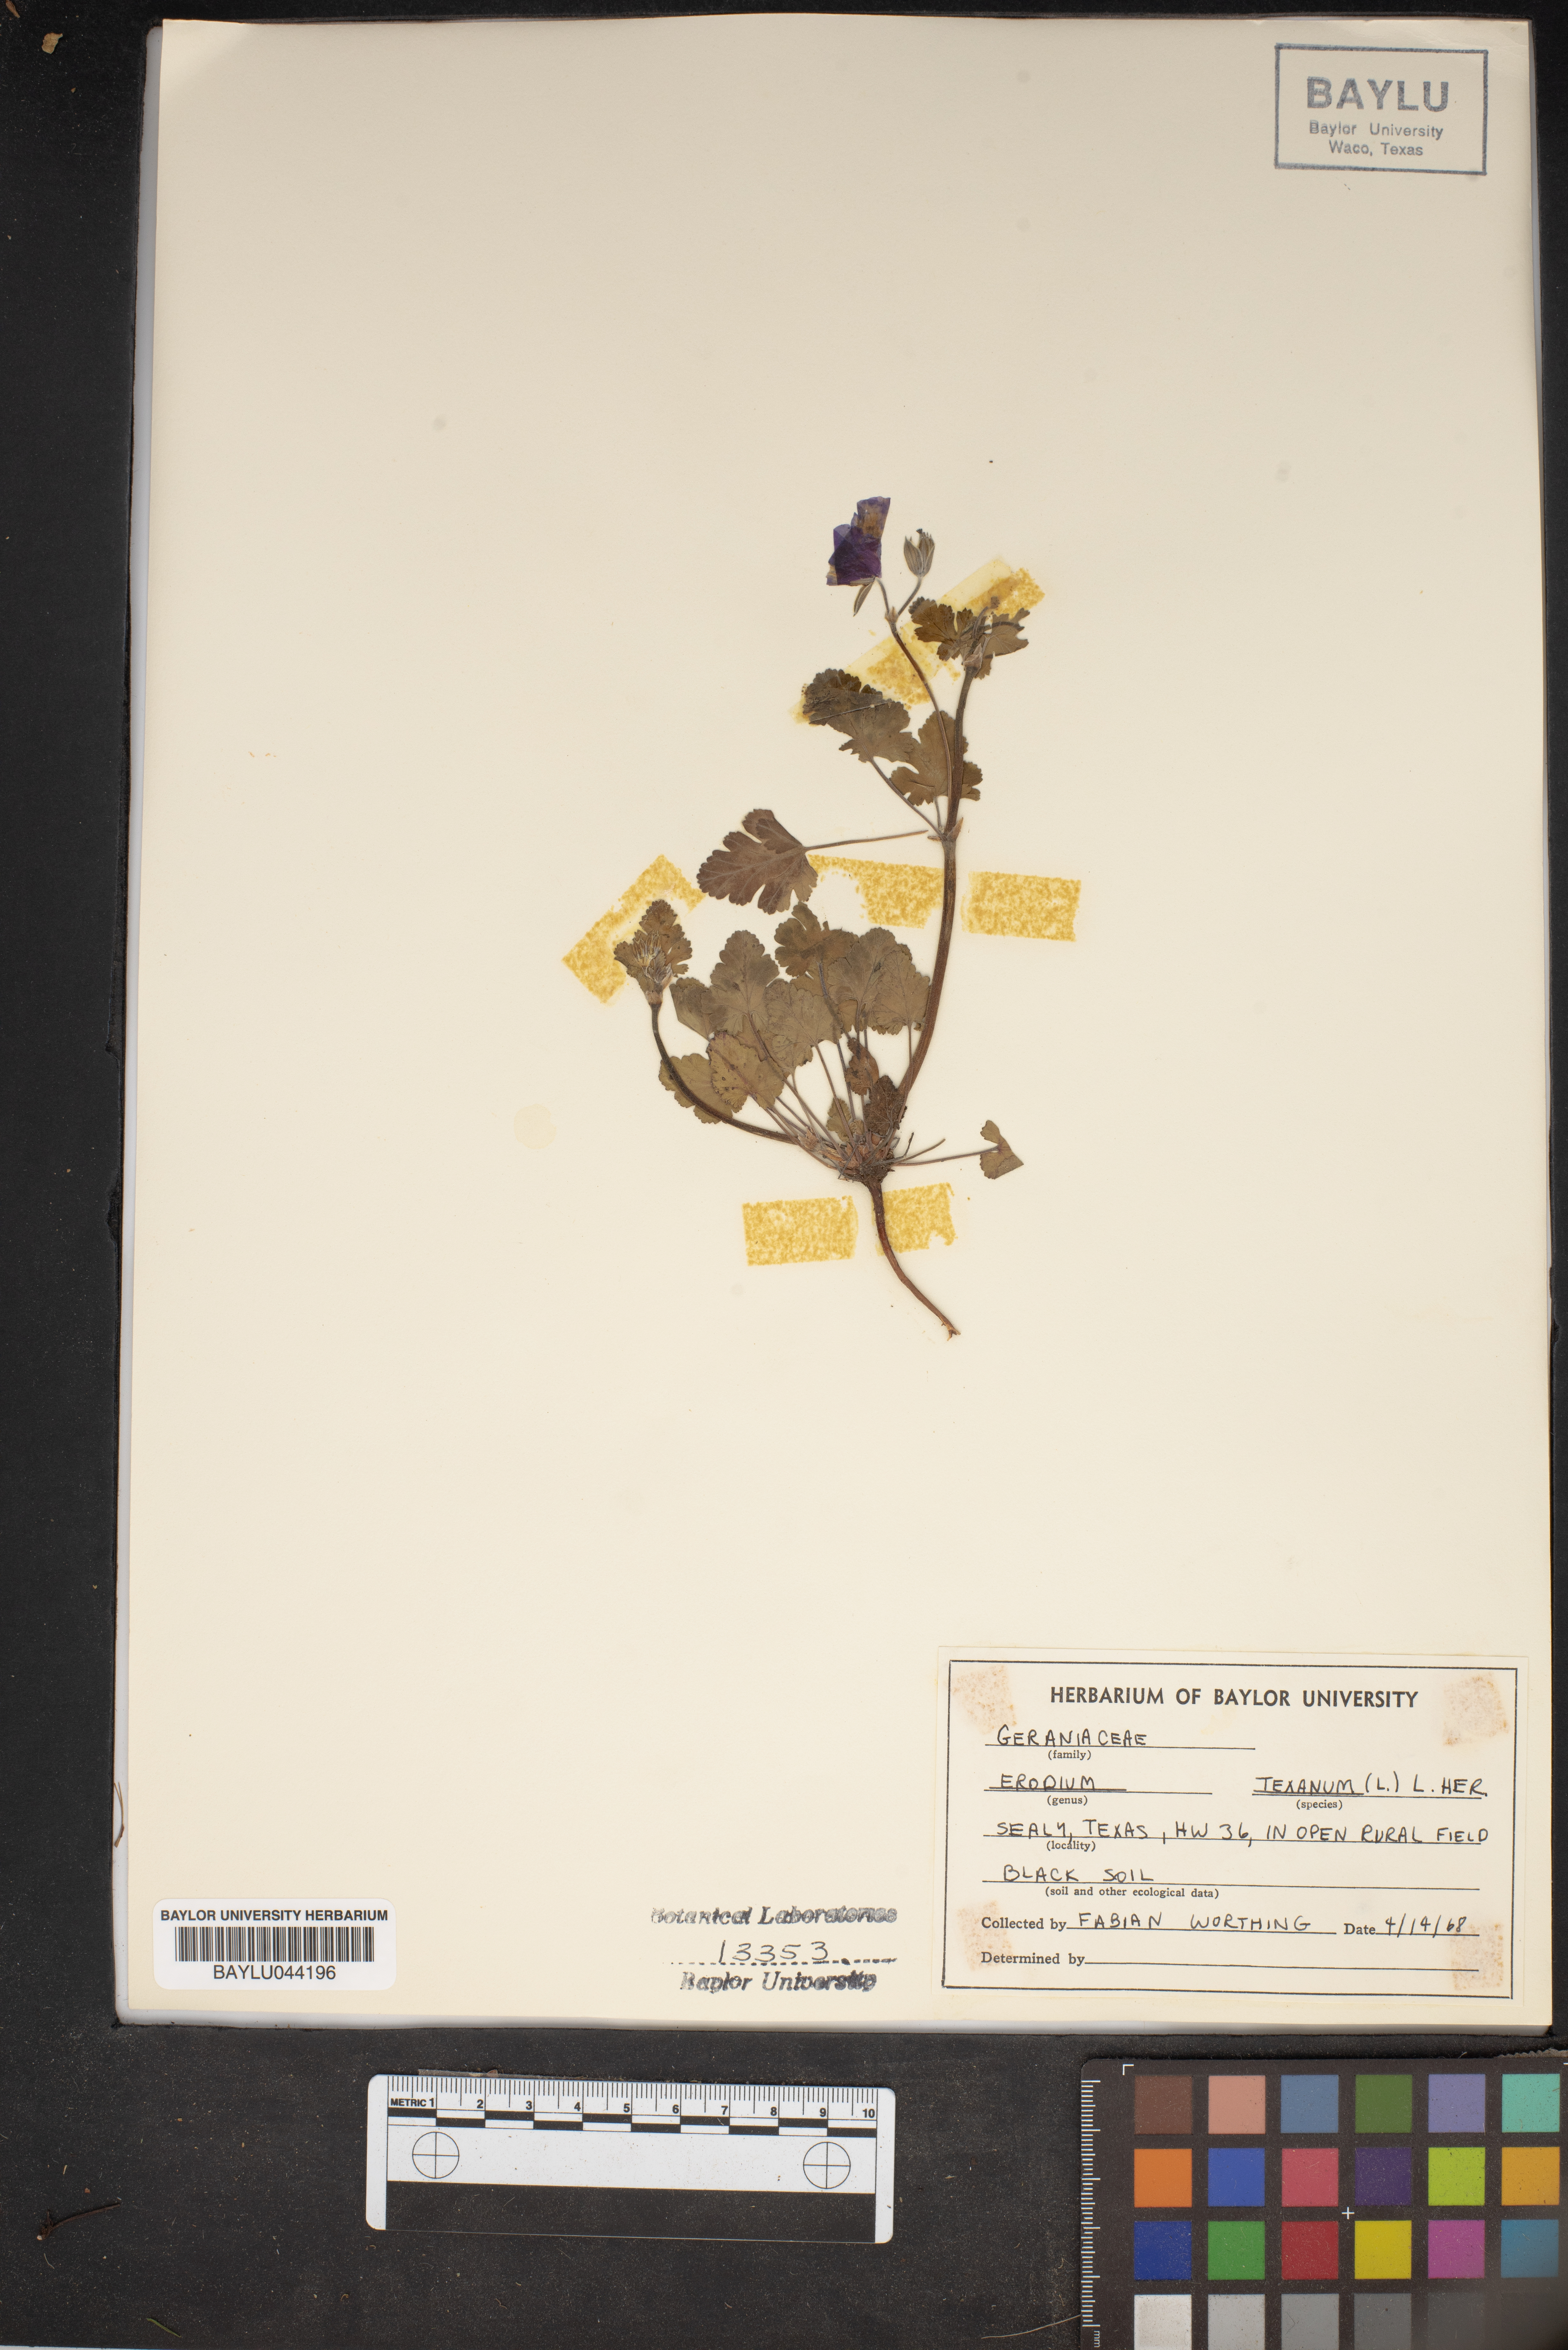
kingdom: Plantae
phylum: Tracheophyta
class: Magnoliopsida
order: Geraniales
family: Geraniaceae
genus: Erodium
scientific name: Erodium texanum
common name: Texas stork's-bill
